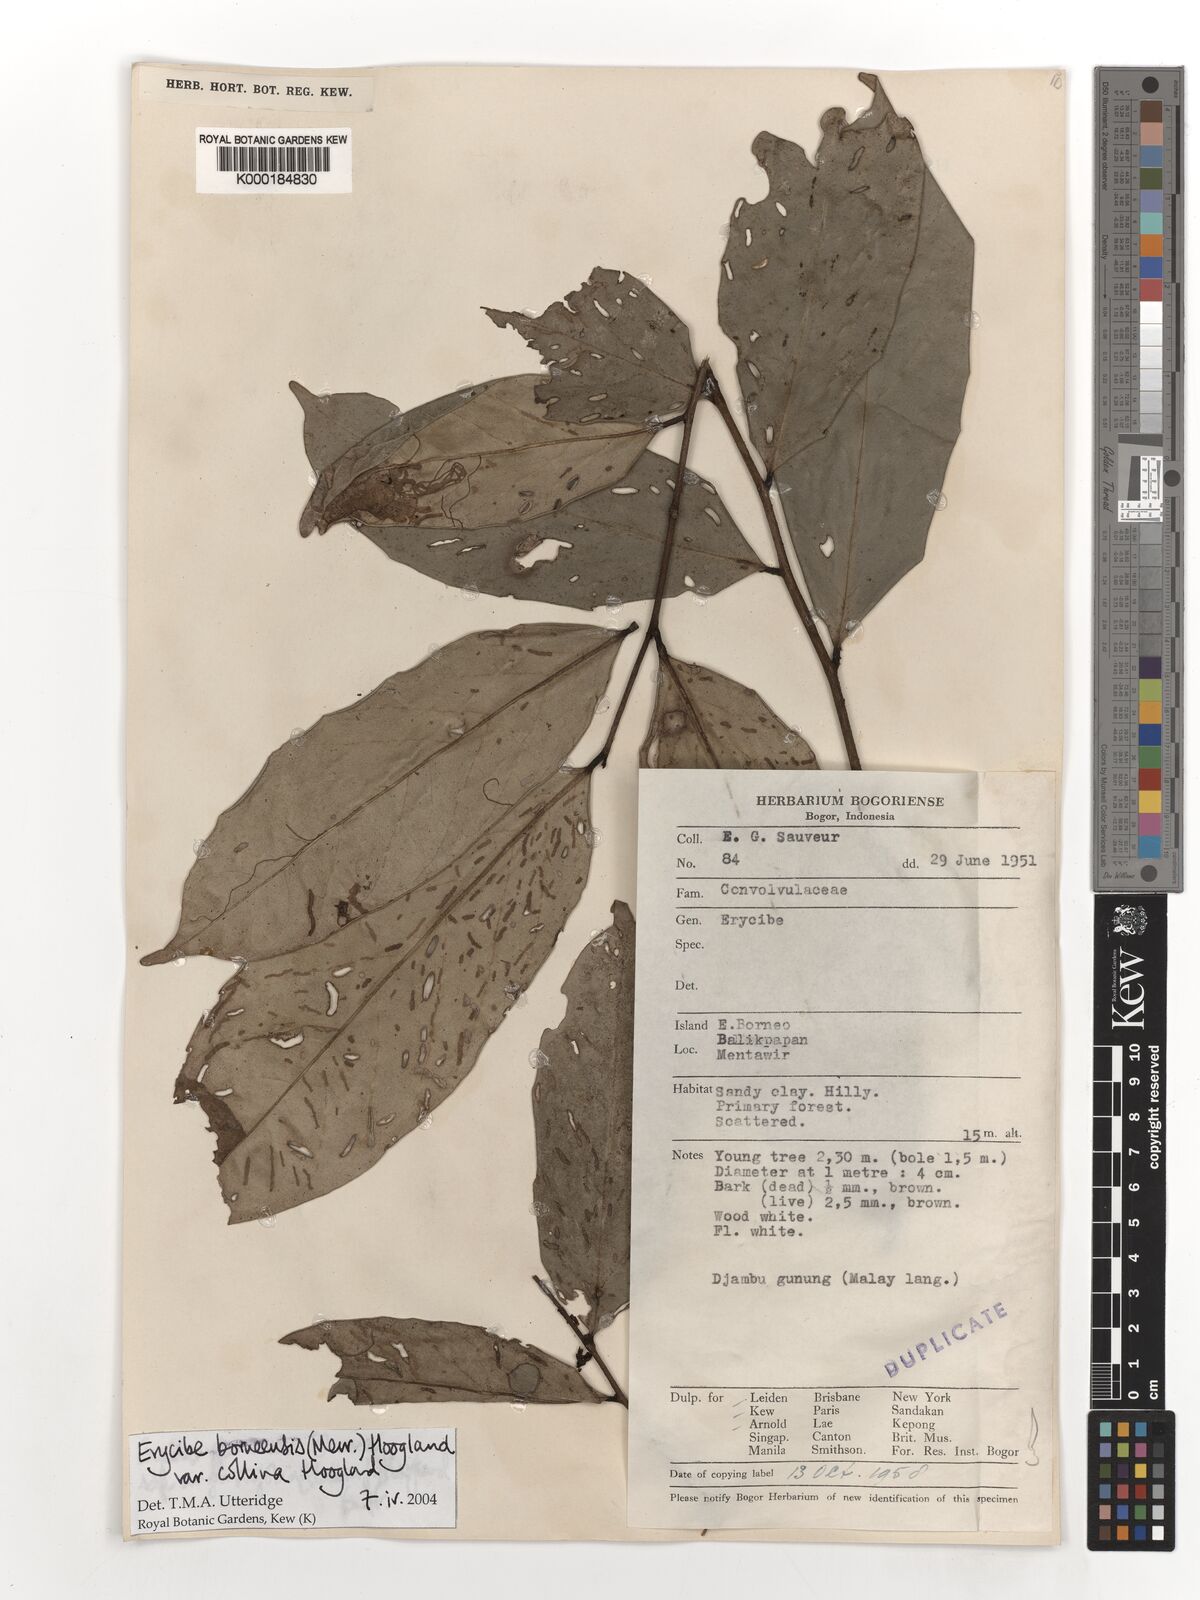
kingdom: Plantae
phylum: Tracheophyta
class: Magnoliopsida
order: Solanales
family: Convolvulaceae
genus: Erycibe
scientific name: Erycibe borneensis
